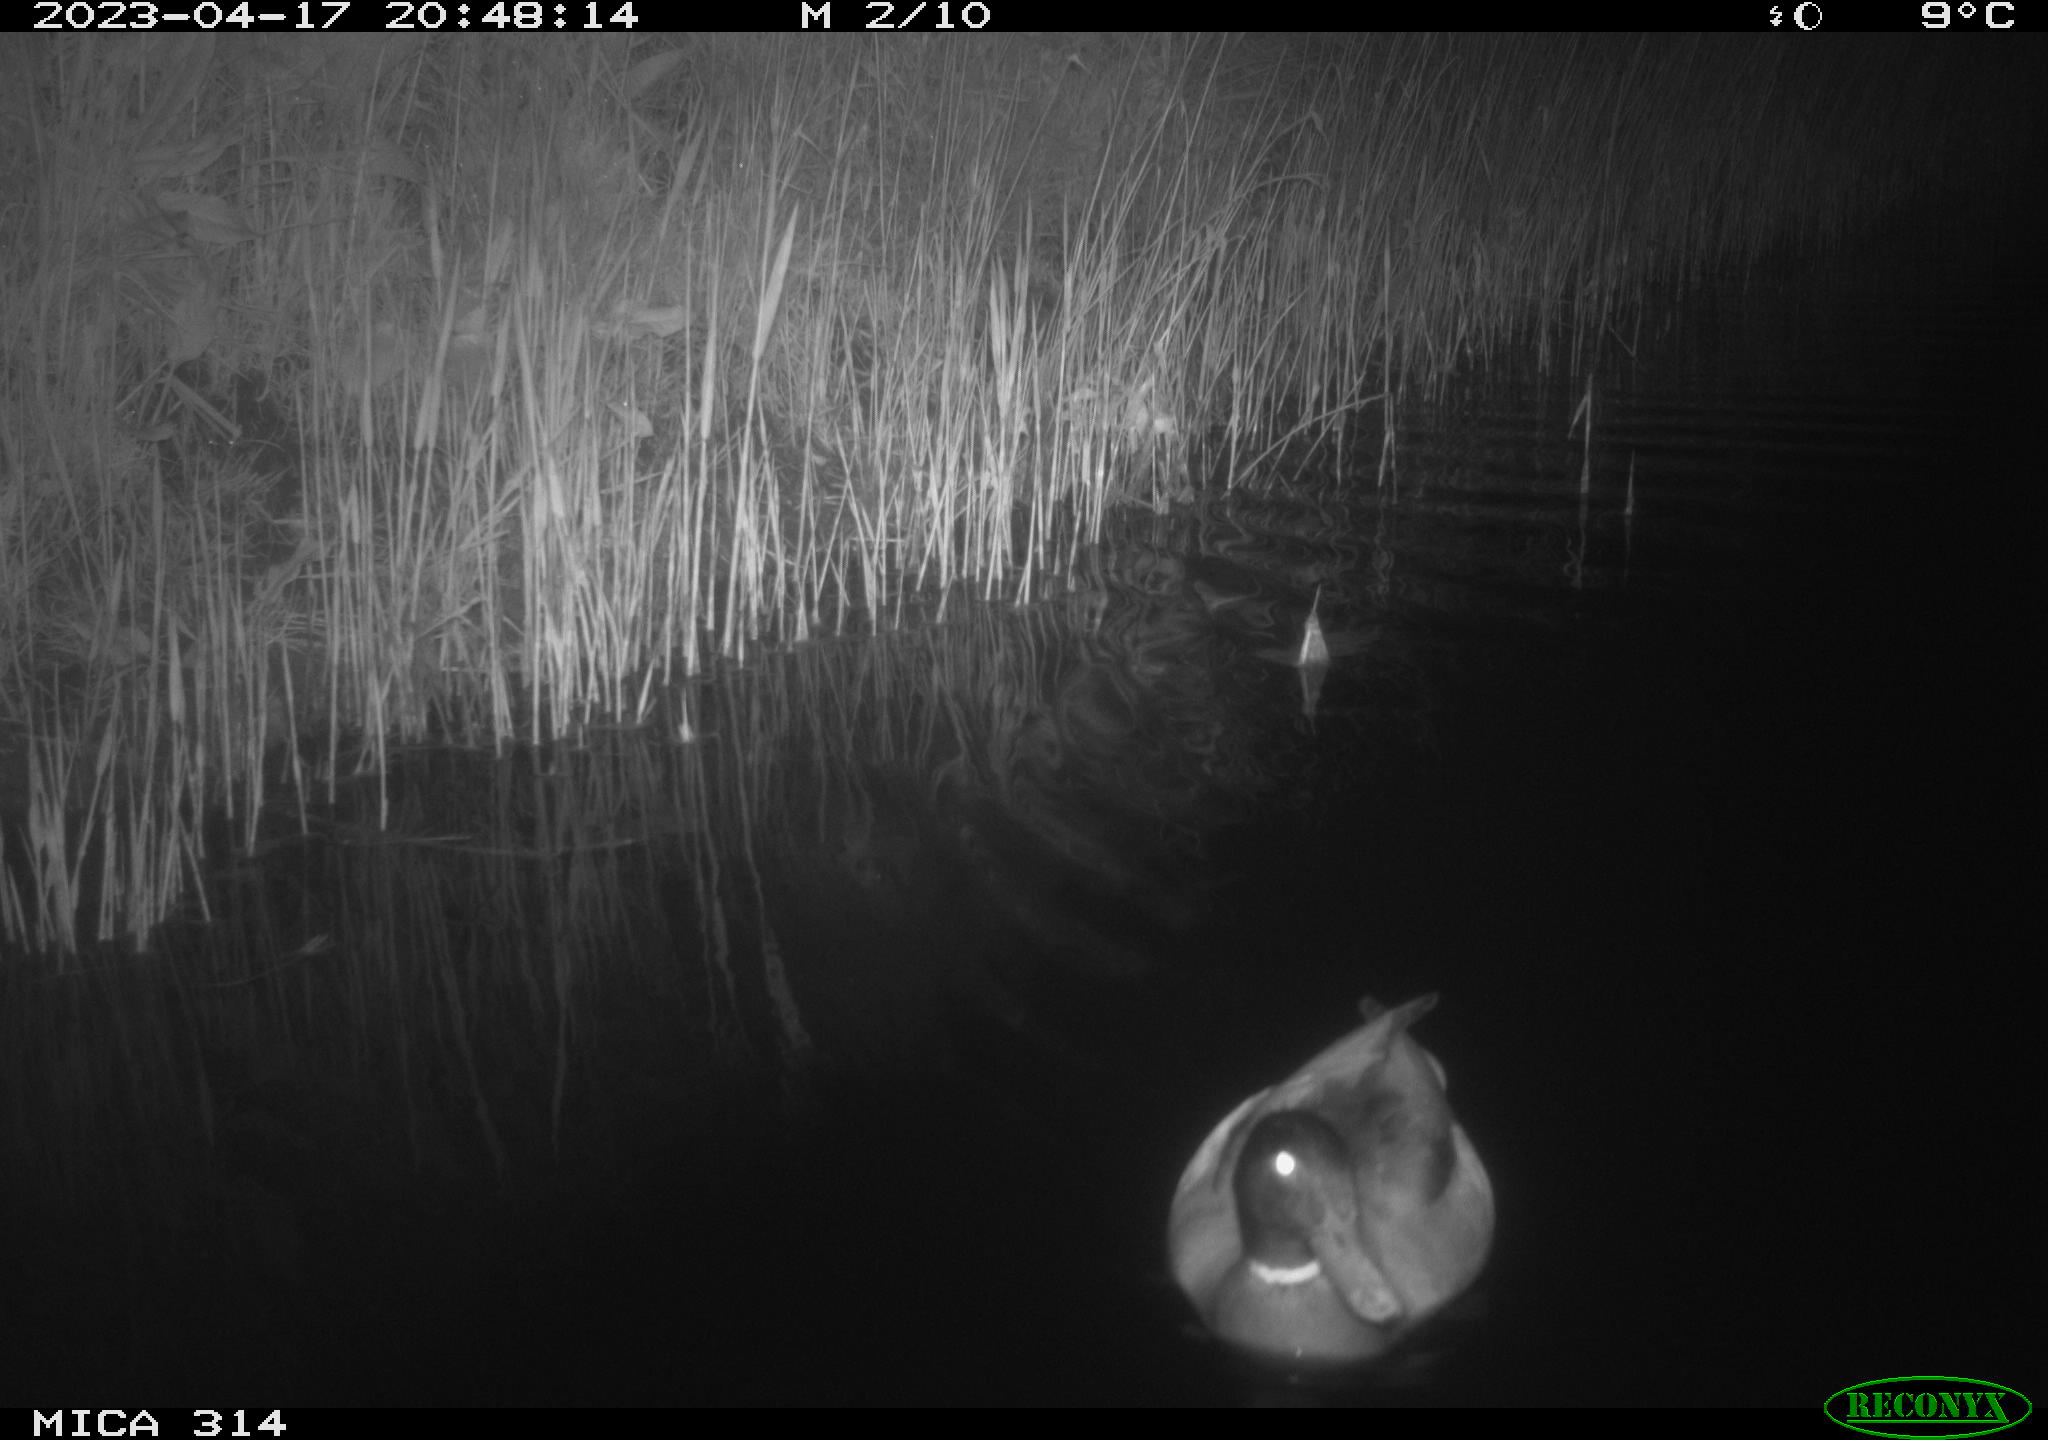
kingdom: Animalia
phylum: Chordata
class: Aves
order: Anseriformes
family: Anatidae
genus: Anas
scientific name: Anas
